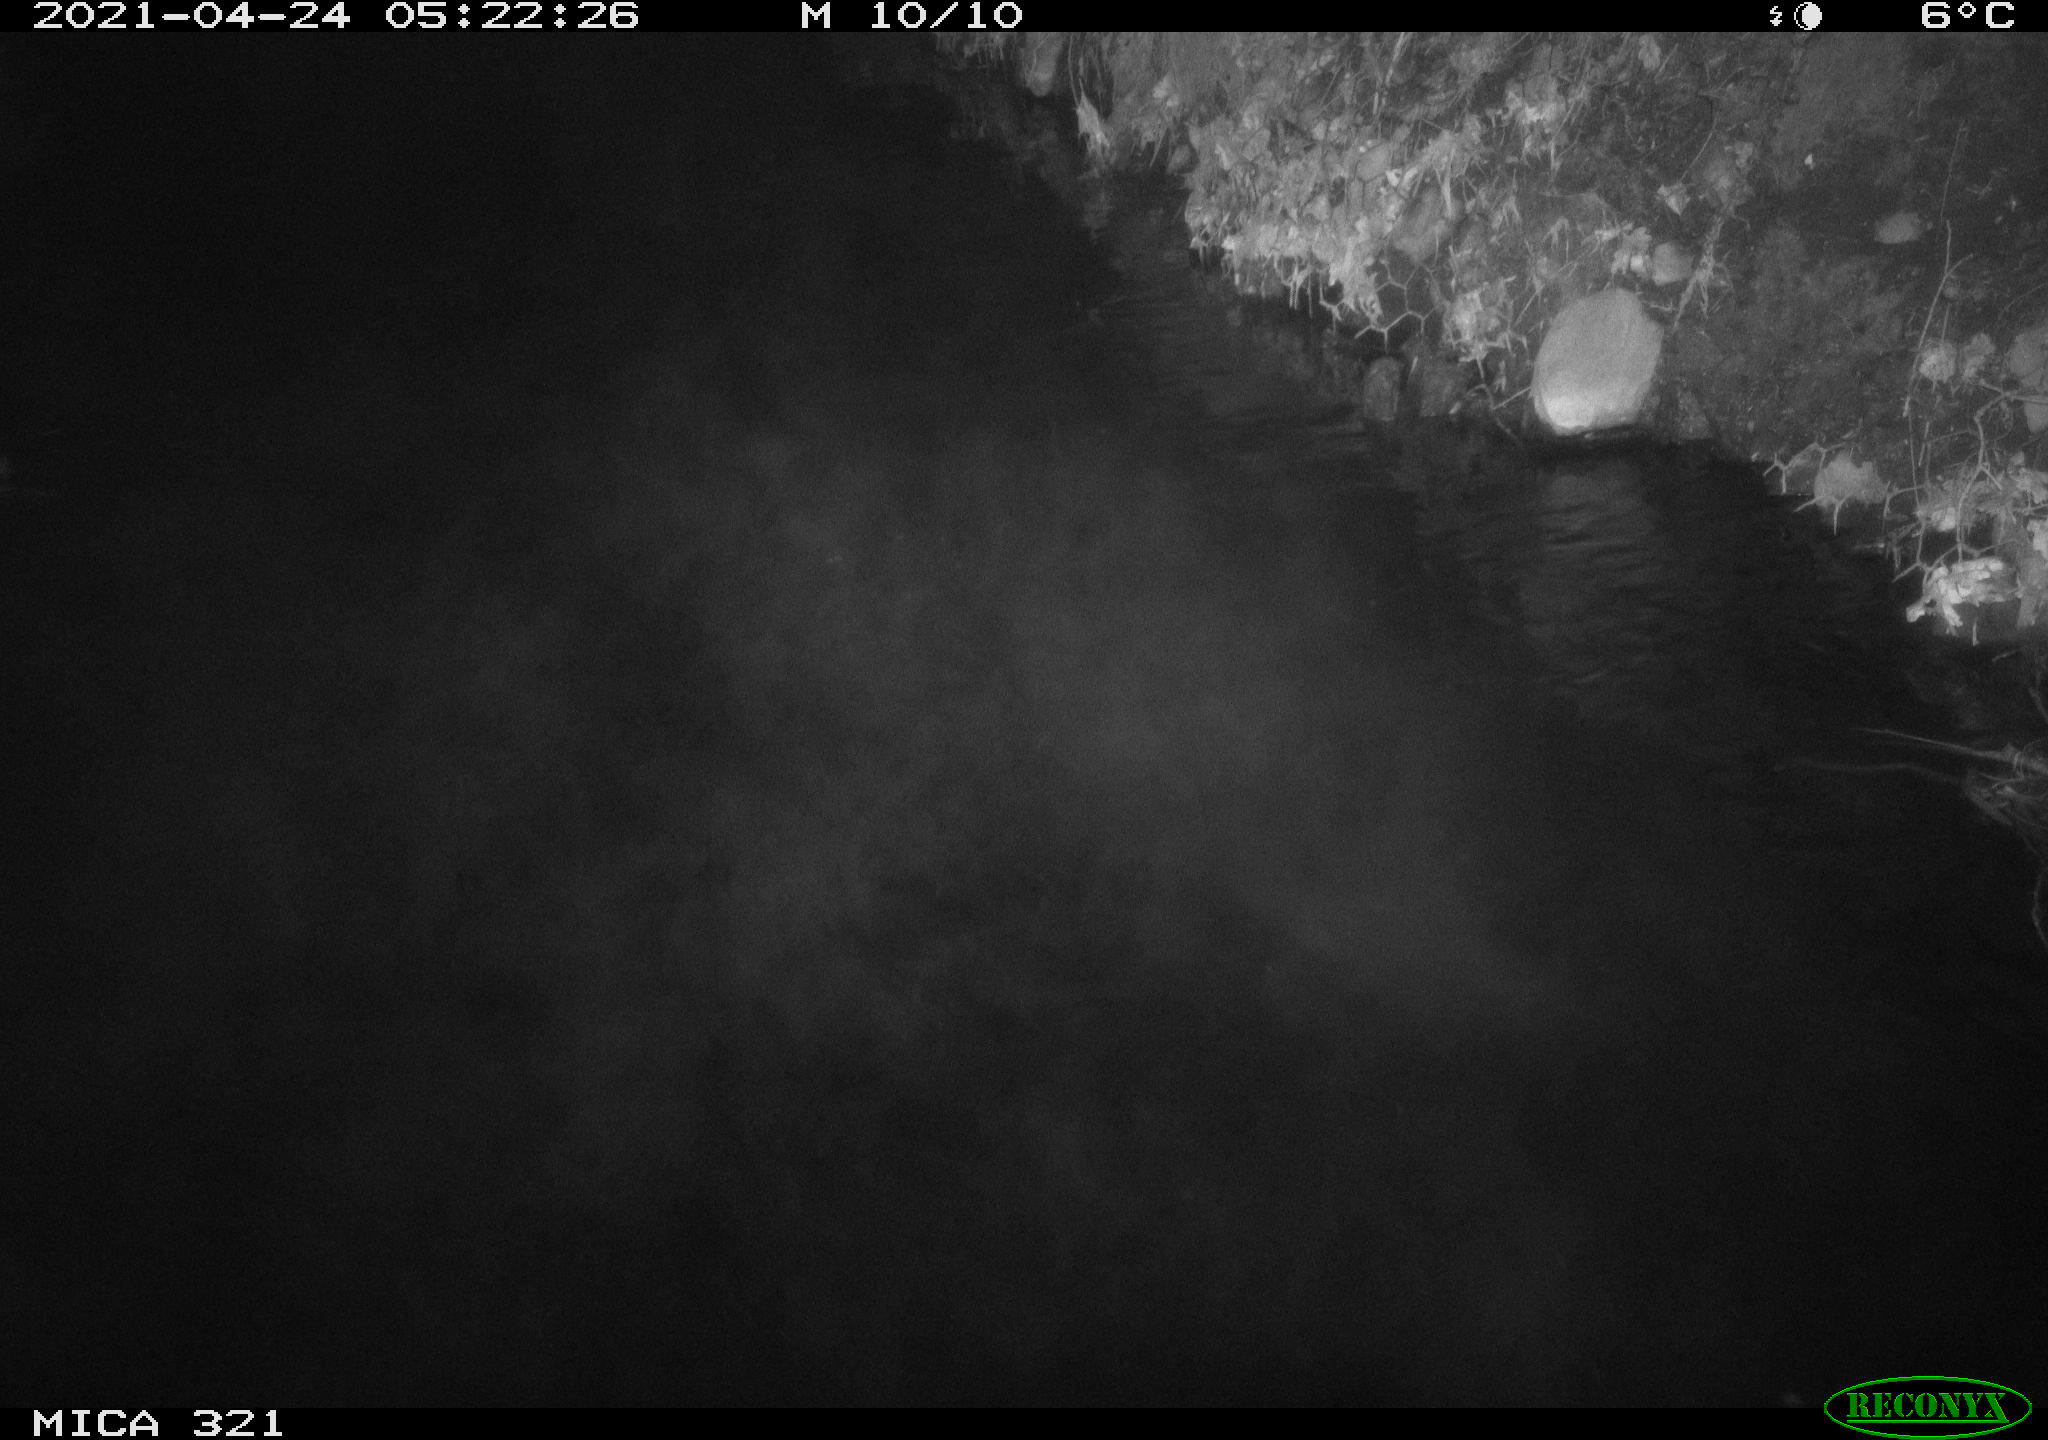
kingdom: Animalia
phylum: Chordata
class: Aves
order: Anseriformes
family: Anatidae
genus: Anas
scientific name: Anas
